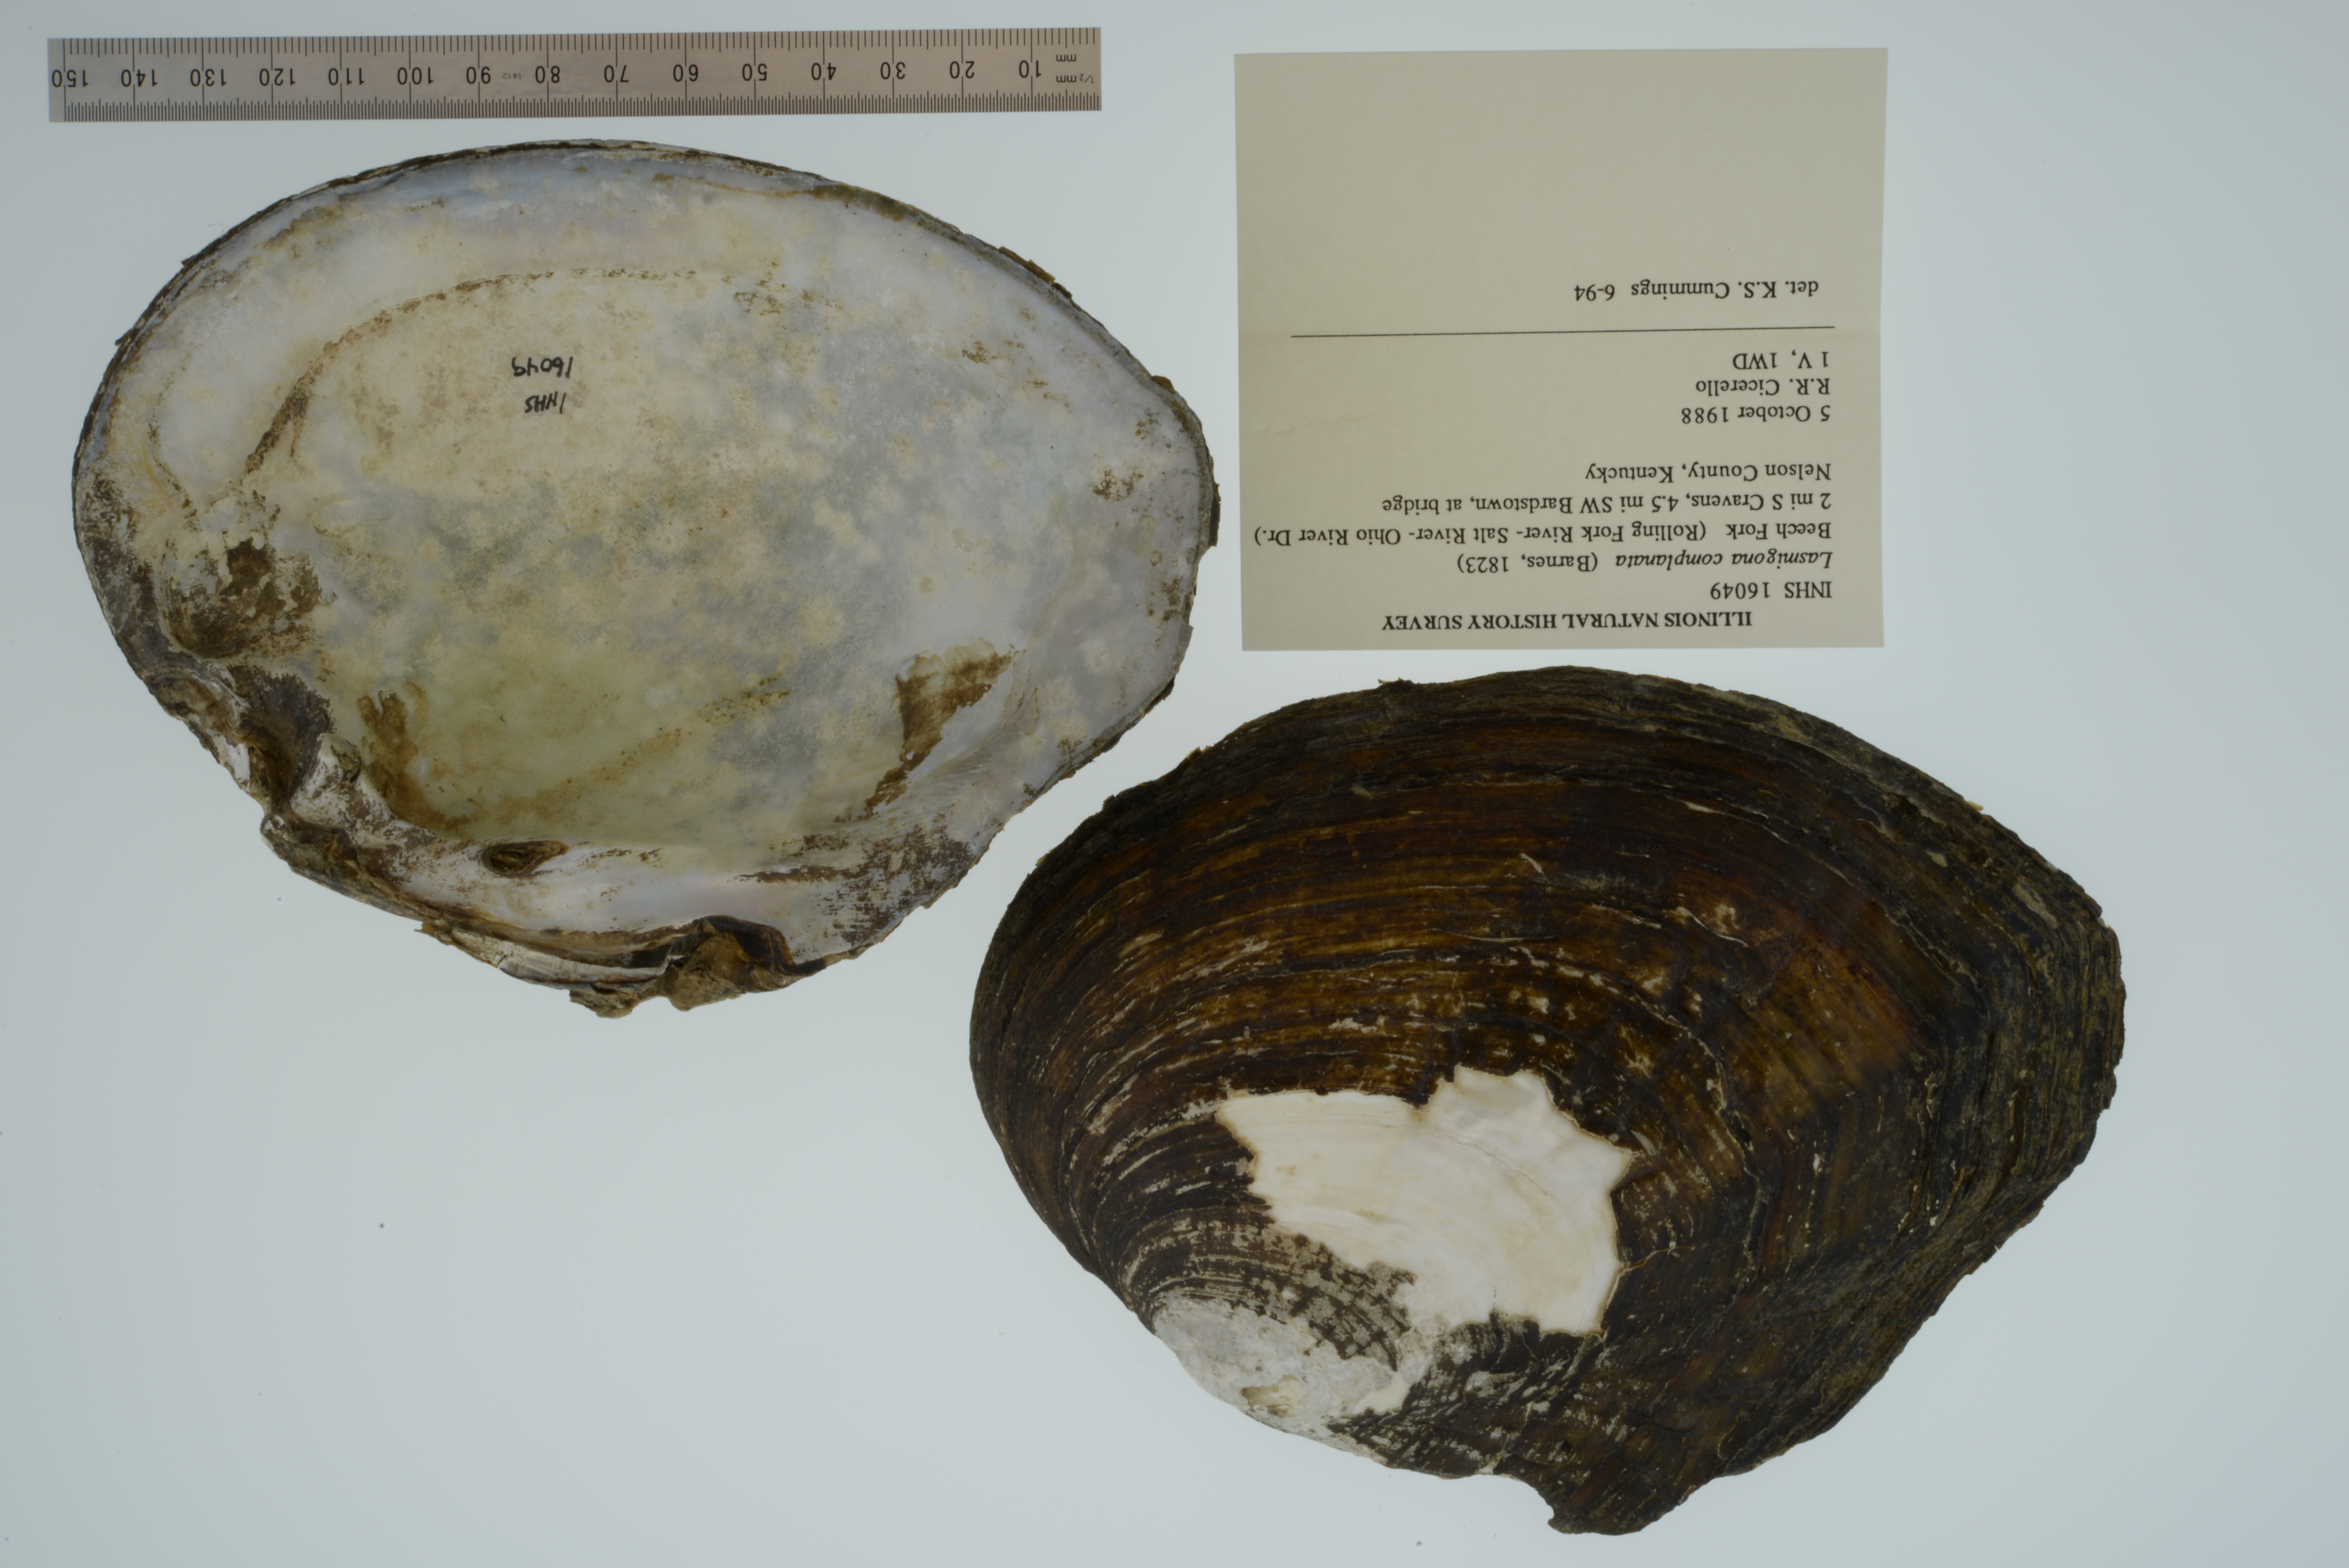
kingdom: Animalia
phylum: Mollusca
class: Bivalvia
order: Unionida
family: Unionidae
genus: Lasmigona
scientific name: Lasmigona complanata
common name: White heelsplitter
